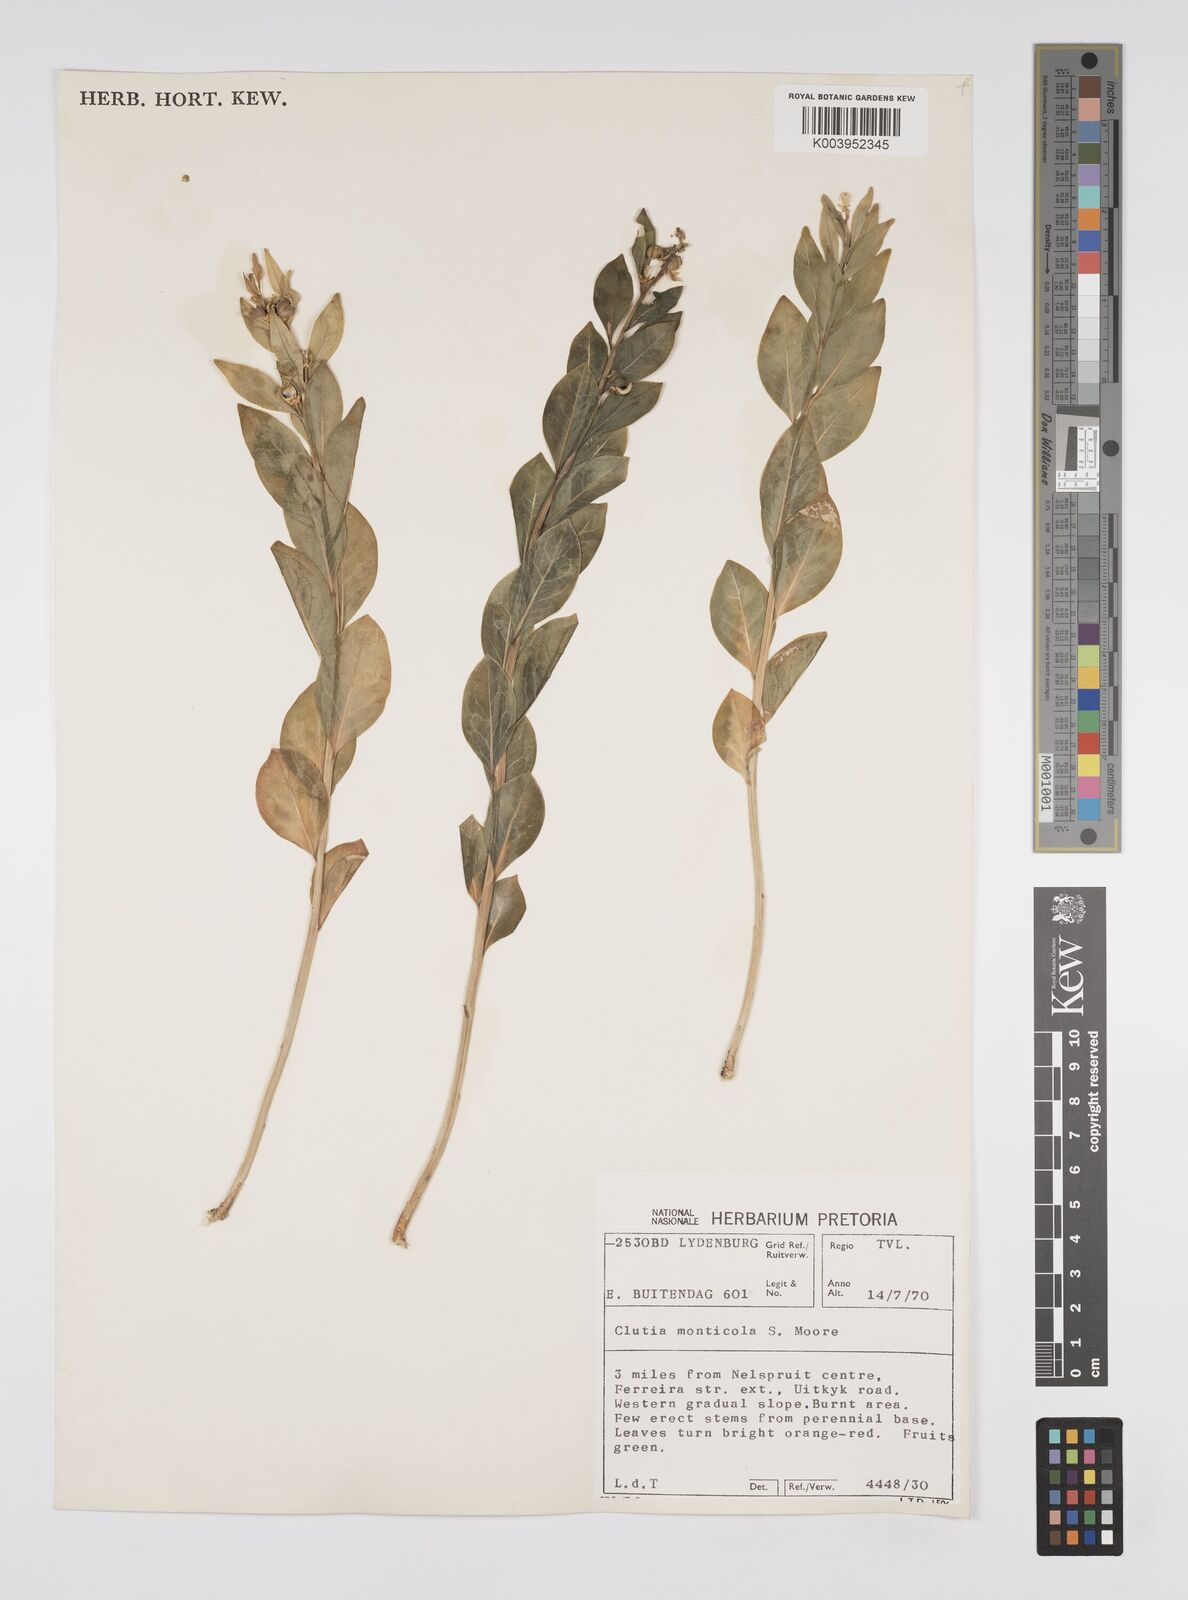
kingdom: Plantae
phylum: Tracheophyta
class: Magnoliopsida
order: Malpighiales
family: Peraceae
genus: Clutia
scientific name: Clutia monticola
